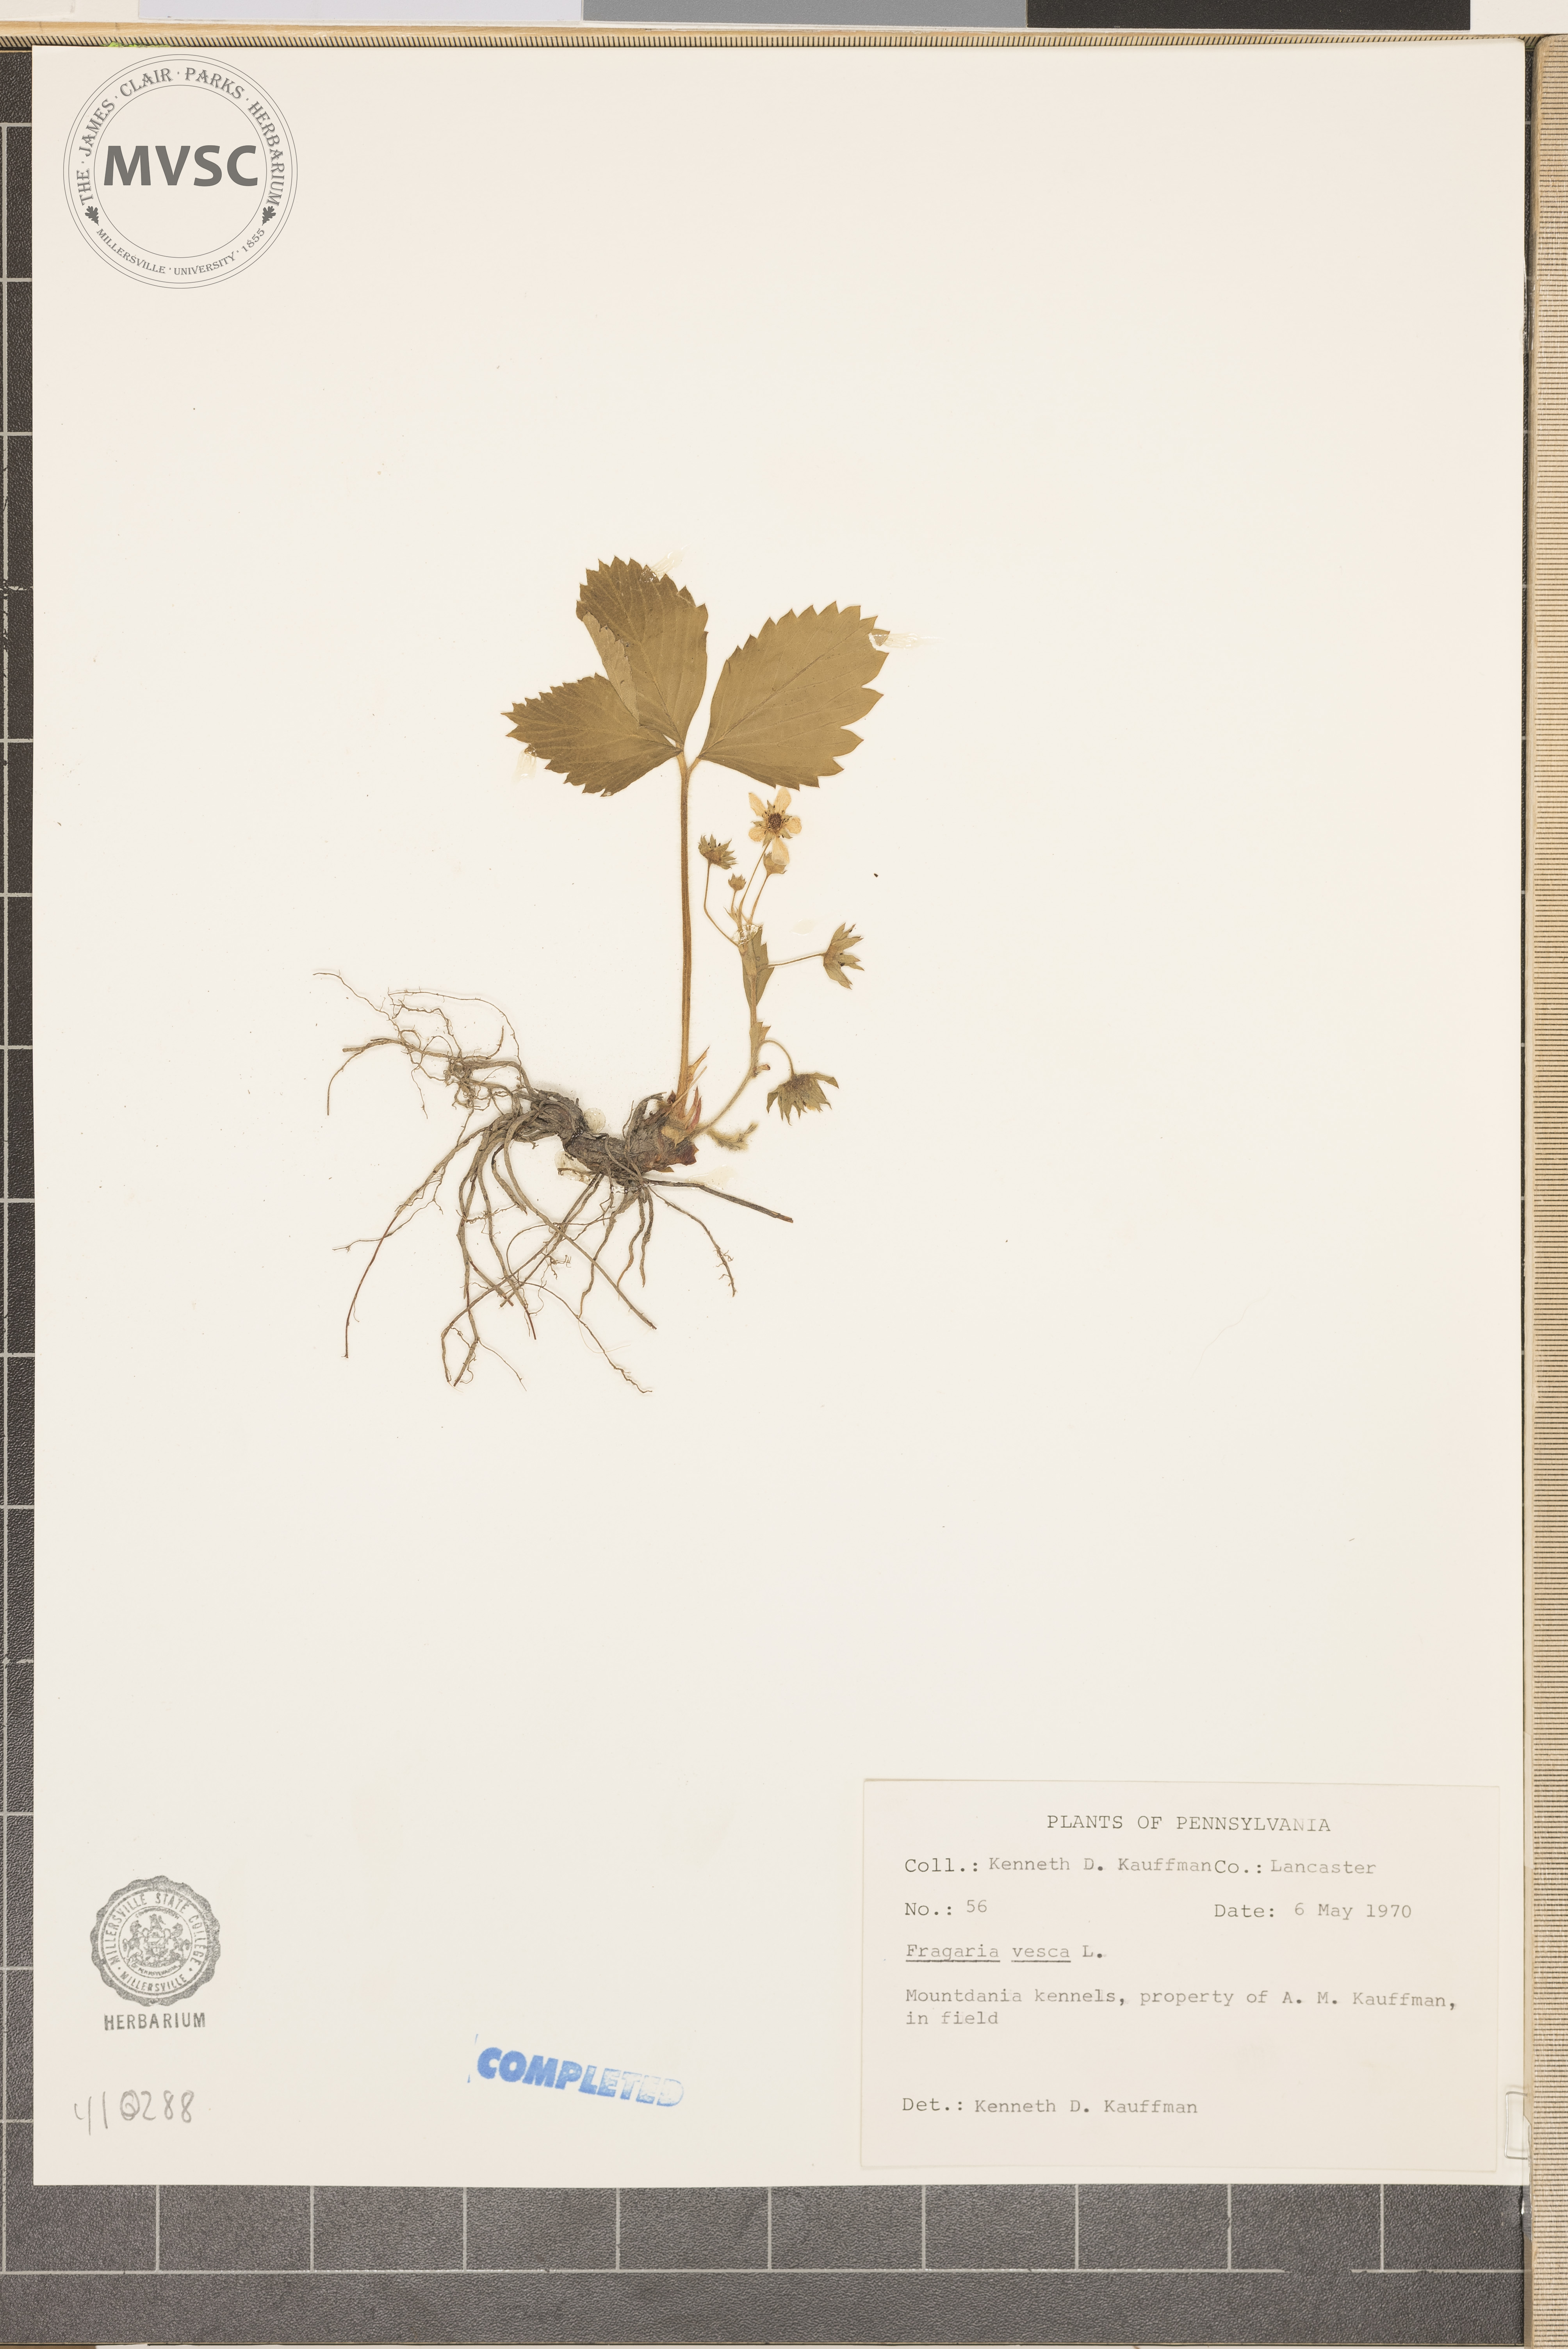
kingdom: Plantae
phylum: Tracheophyta
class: Magnoliopsida
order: Rosales
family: Rosaceae
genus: Fragaria
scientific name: Fragaria vesca
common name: Wild strawberry
